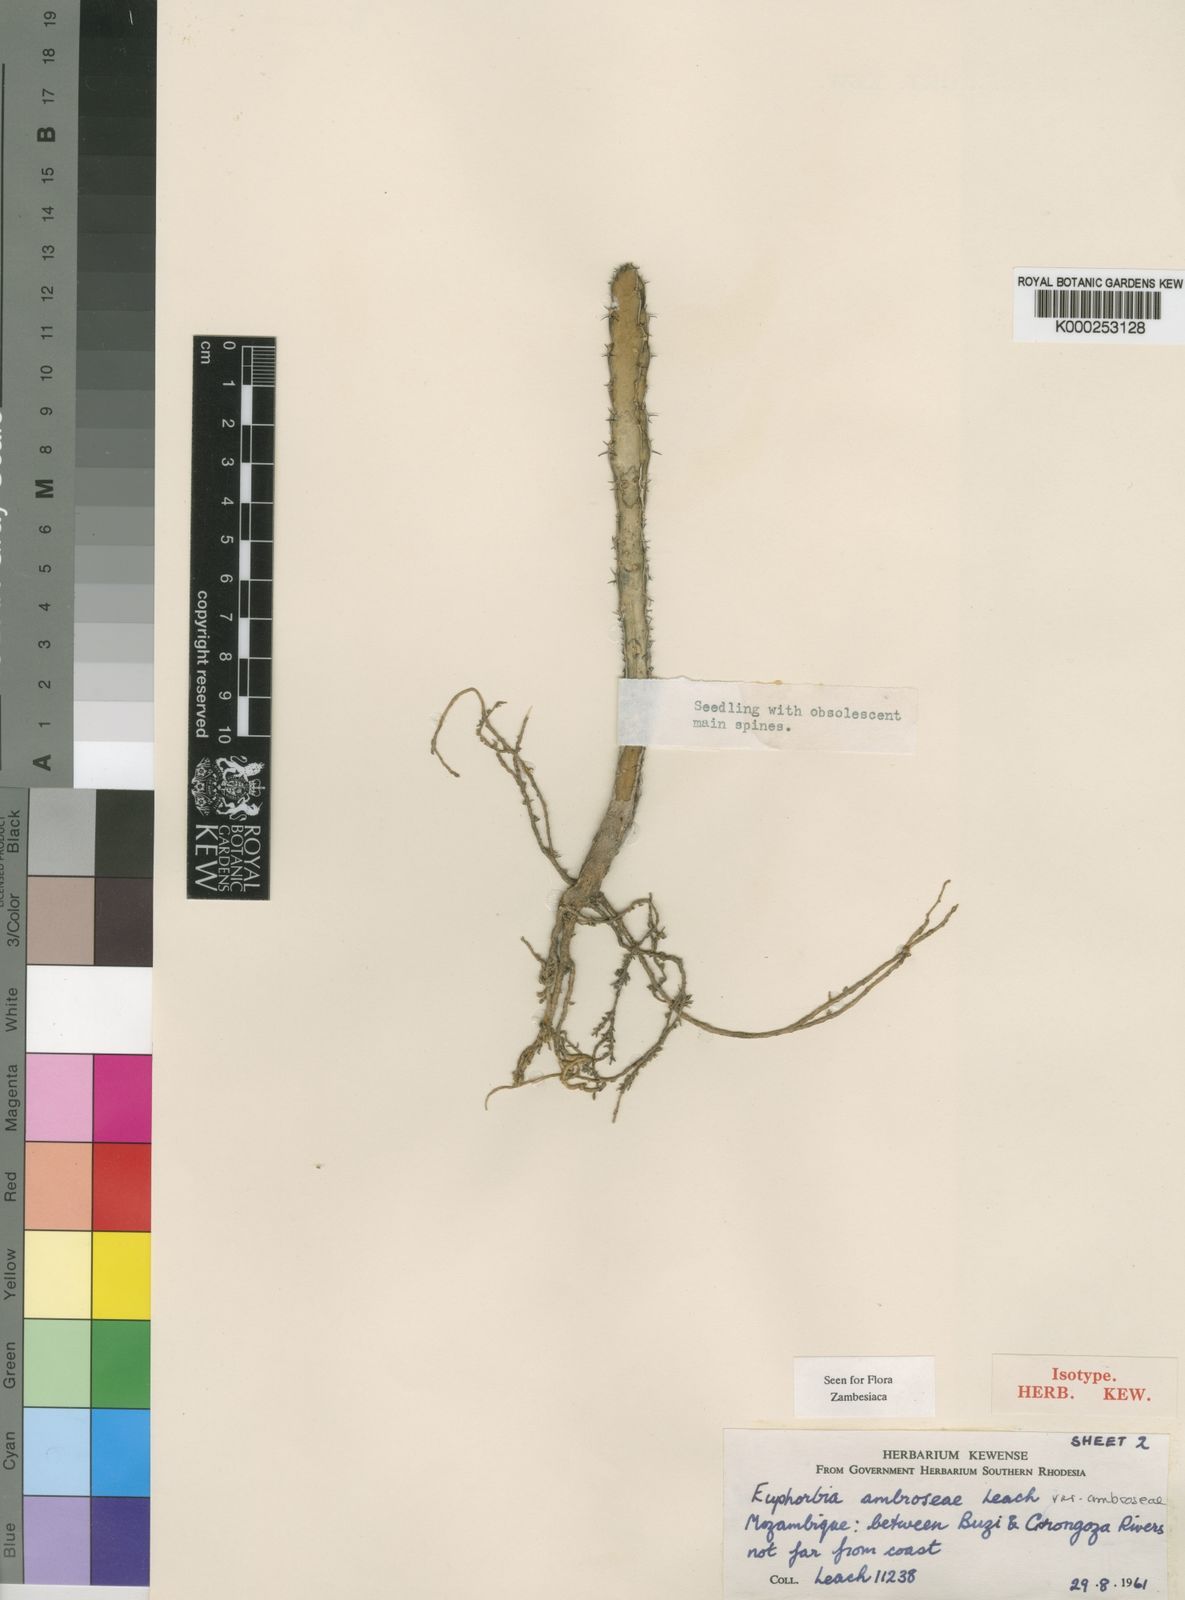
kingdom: Plantae
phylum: Tracheophyta
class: Magnoliopsida
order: Malpighiales
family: Euphorbiaceae
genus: Euphorbia
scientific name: Euphorbia ambroseae
